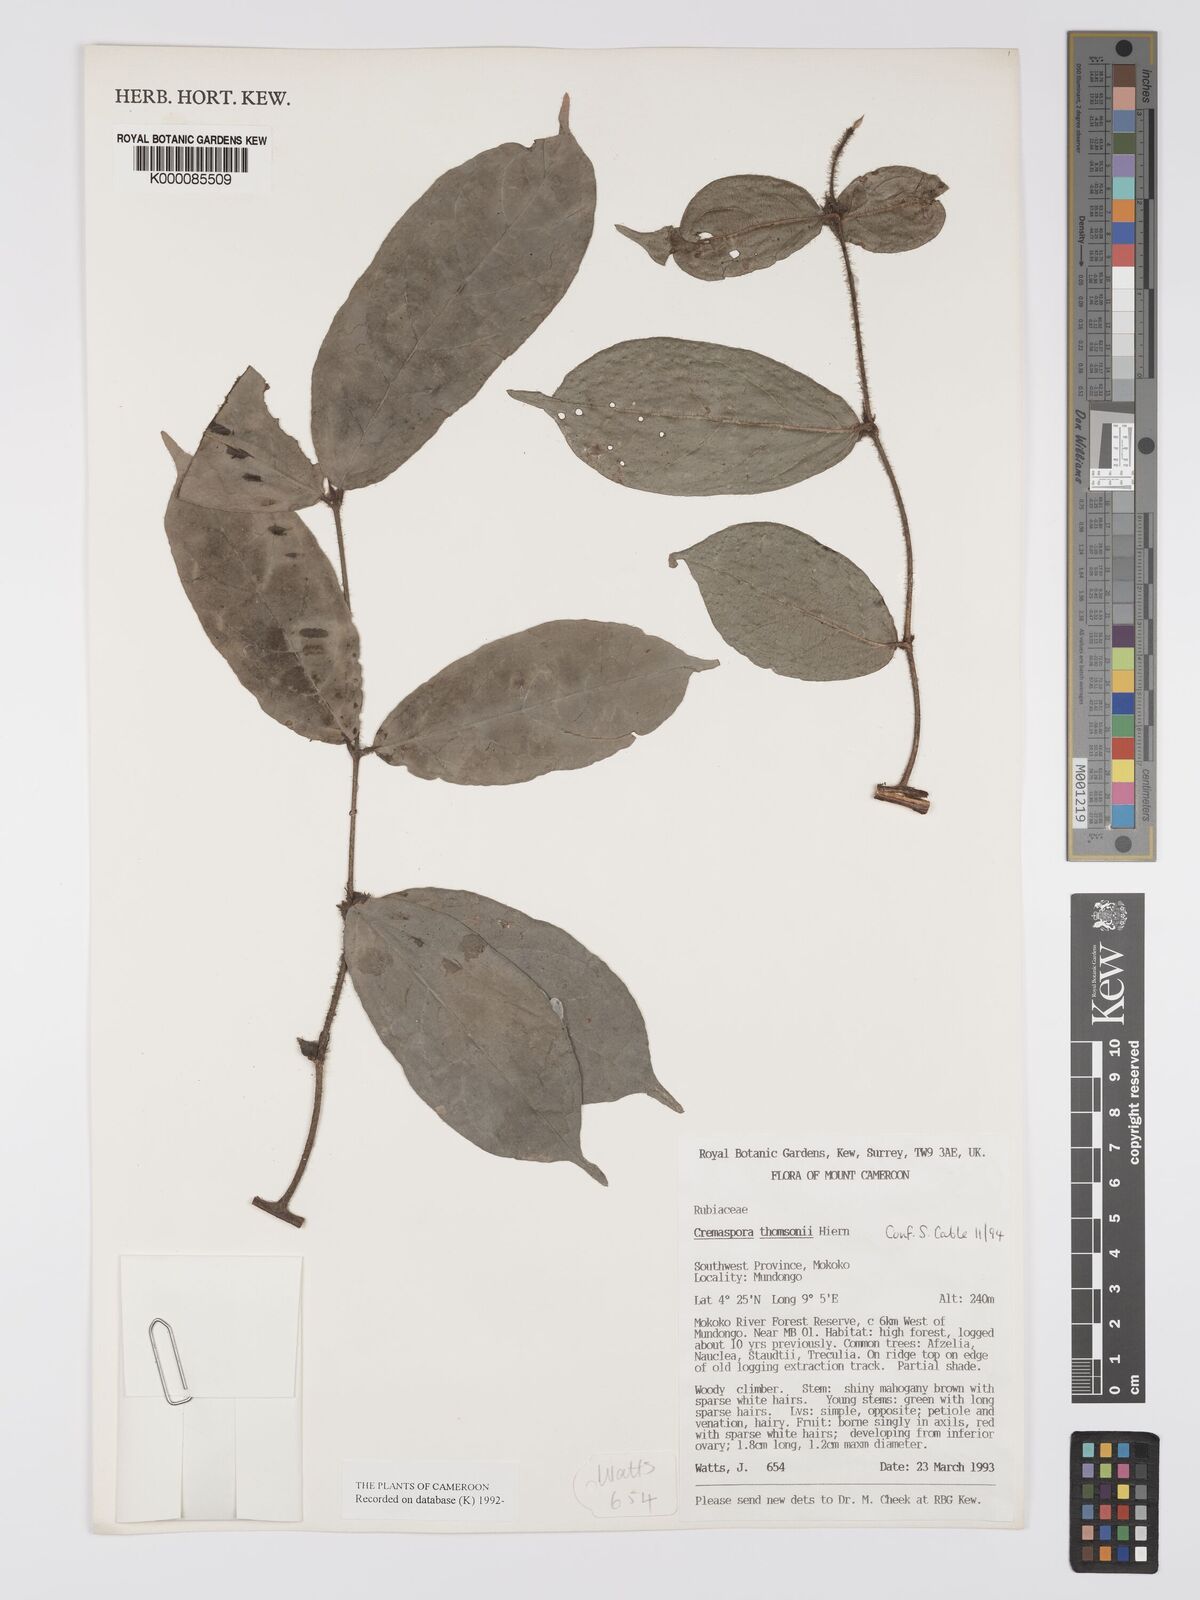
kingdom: Plantae
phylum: Tracheophyta
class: Magnoliopsida
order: Gentianales
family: Rubiaceae
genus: Cremaspora
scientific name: Cremaspora thomsonii
